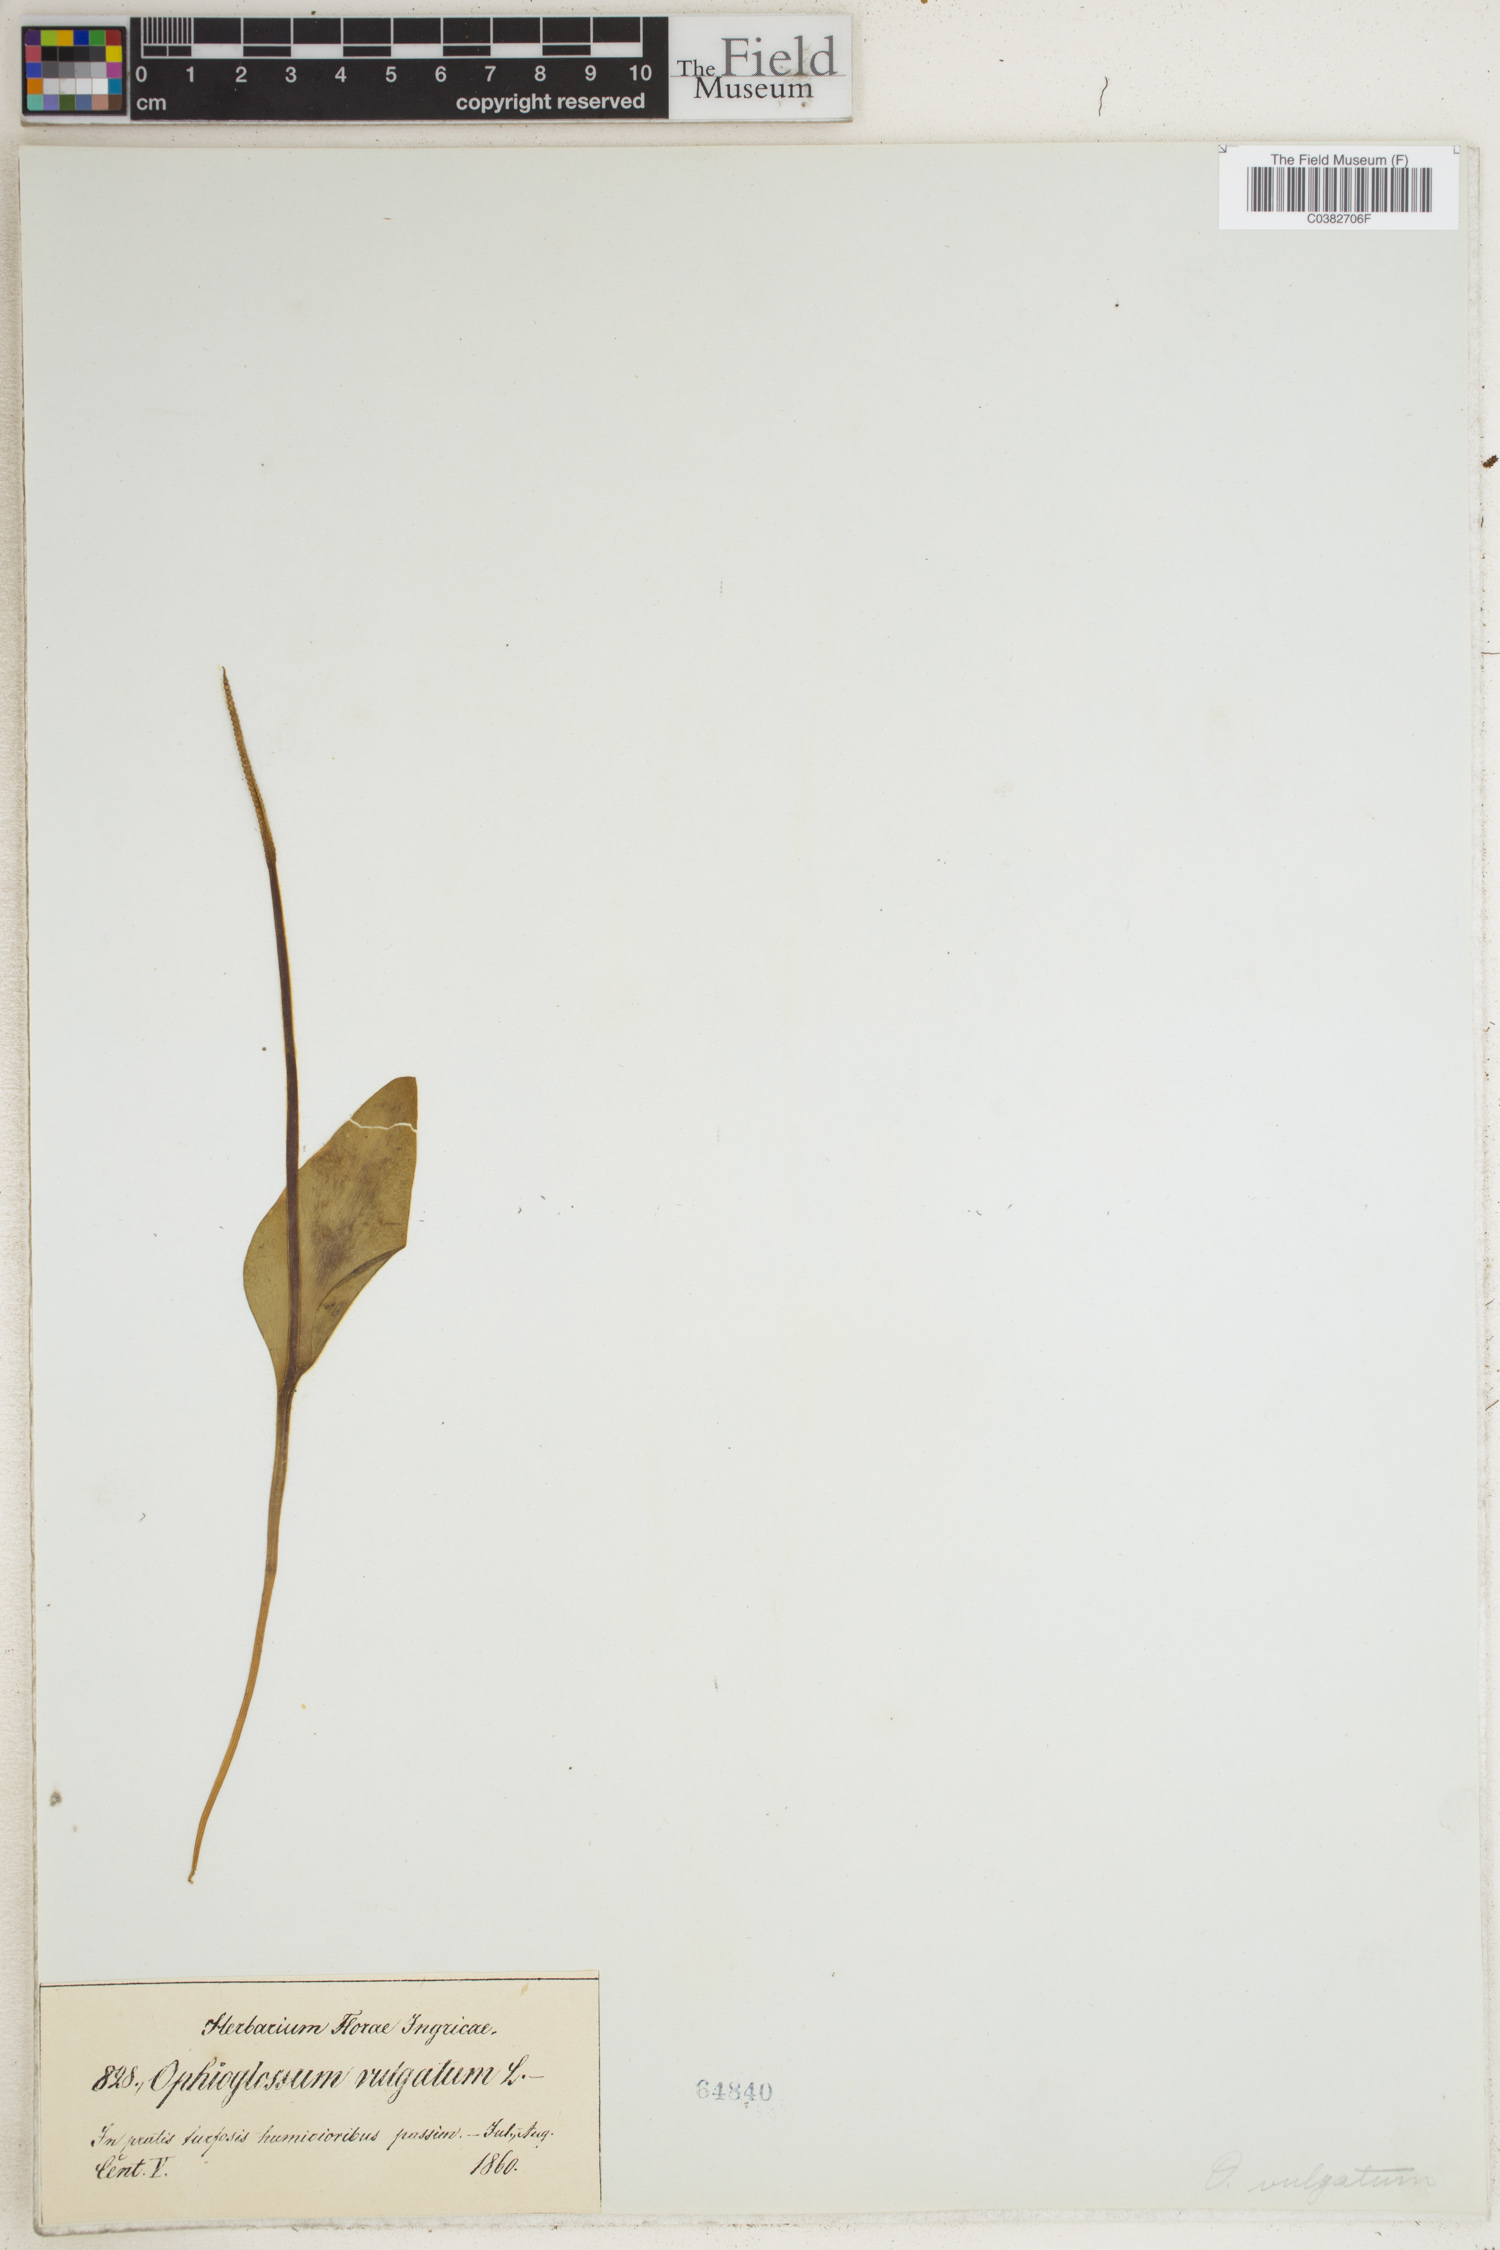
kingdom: Plantae
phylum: Tracheophyta
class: Polypodiopsida
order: Ophioglossales
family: Ophioglossaceae
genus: Ophioglossum
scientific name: Ophioglossum vulgatum
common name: Adder's-tongue
